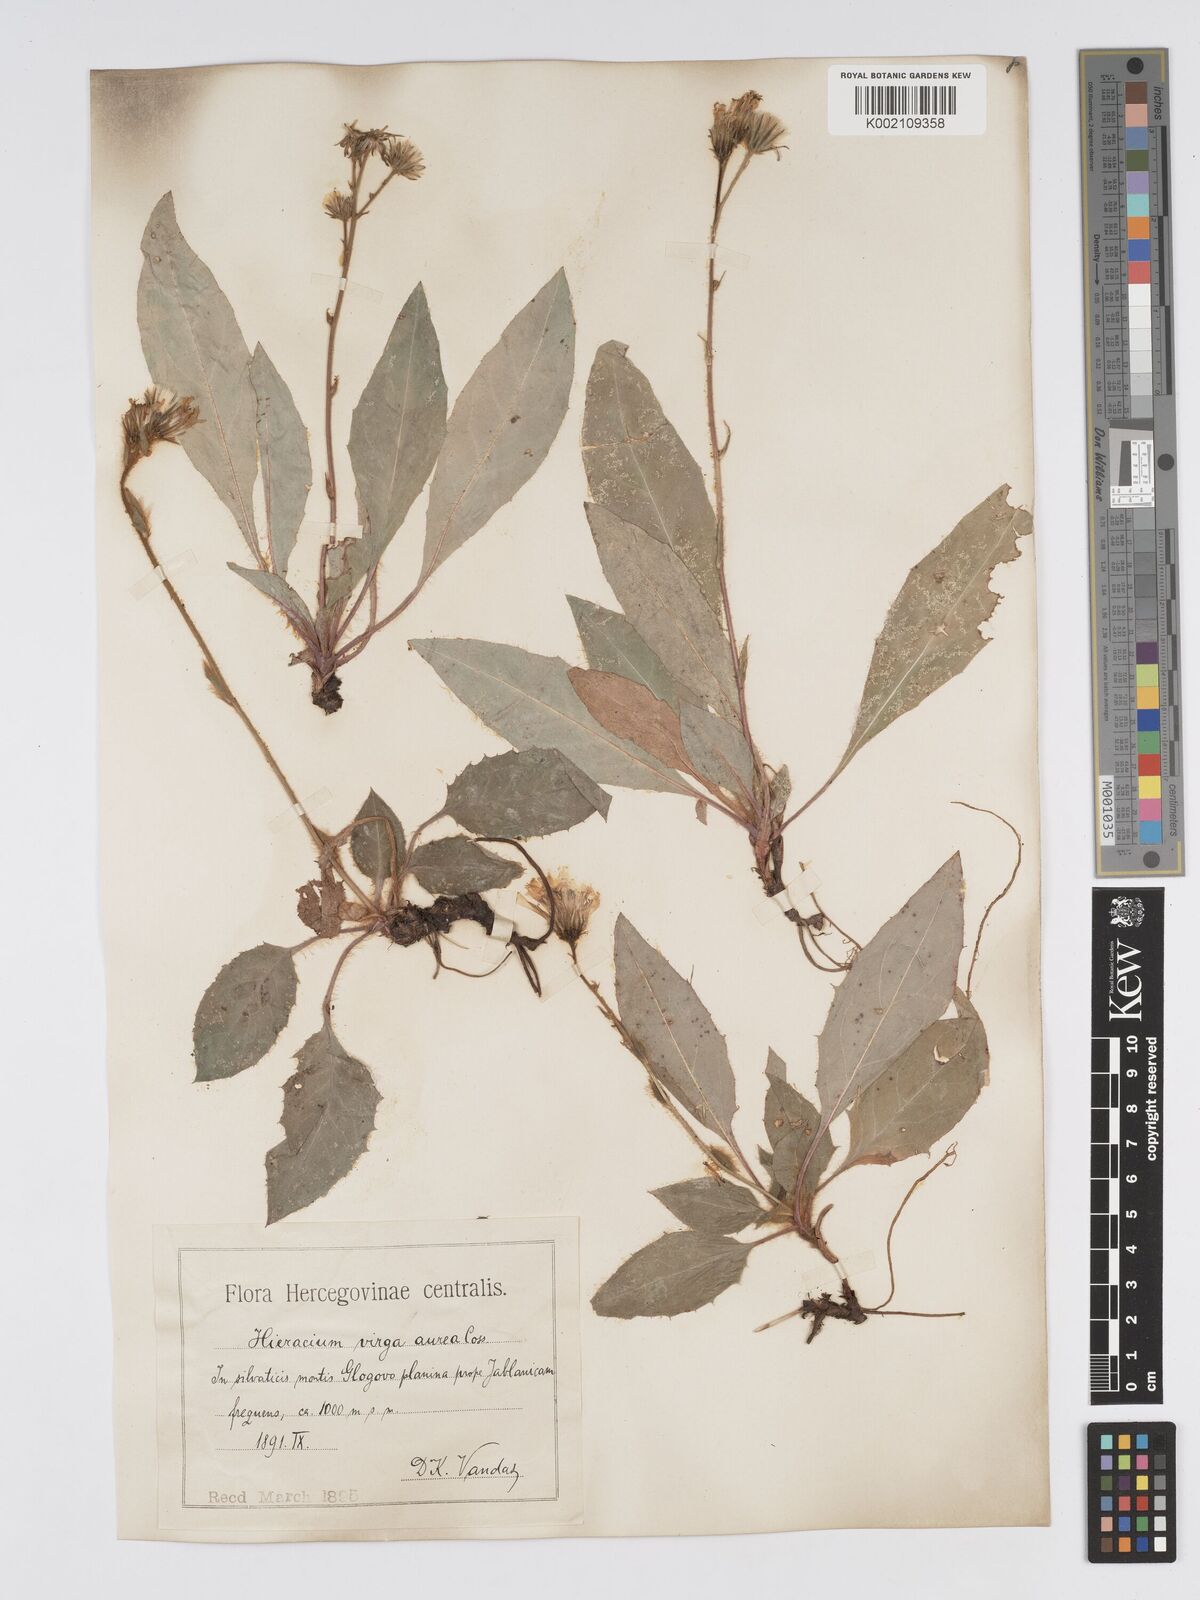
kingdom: Plantae
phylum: Tracheophyta
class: Magnoliopsida
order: Asterales
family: Asteraceae
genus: Hieracium
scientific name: Hieracium bjeluschae
